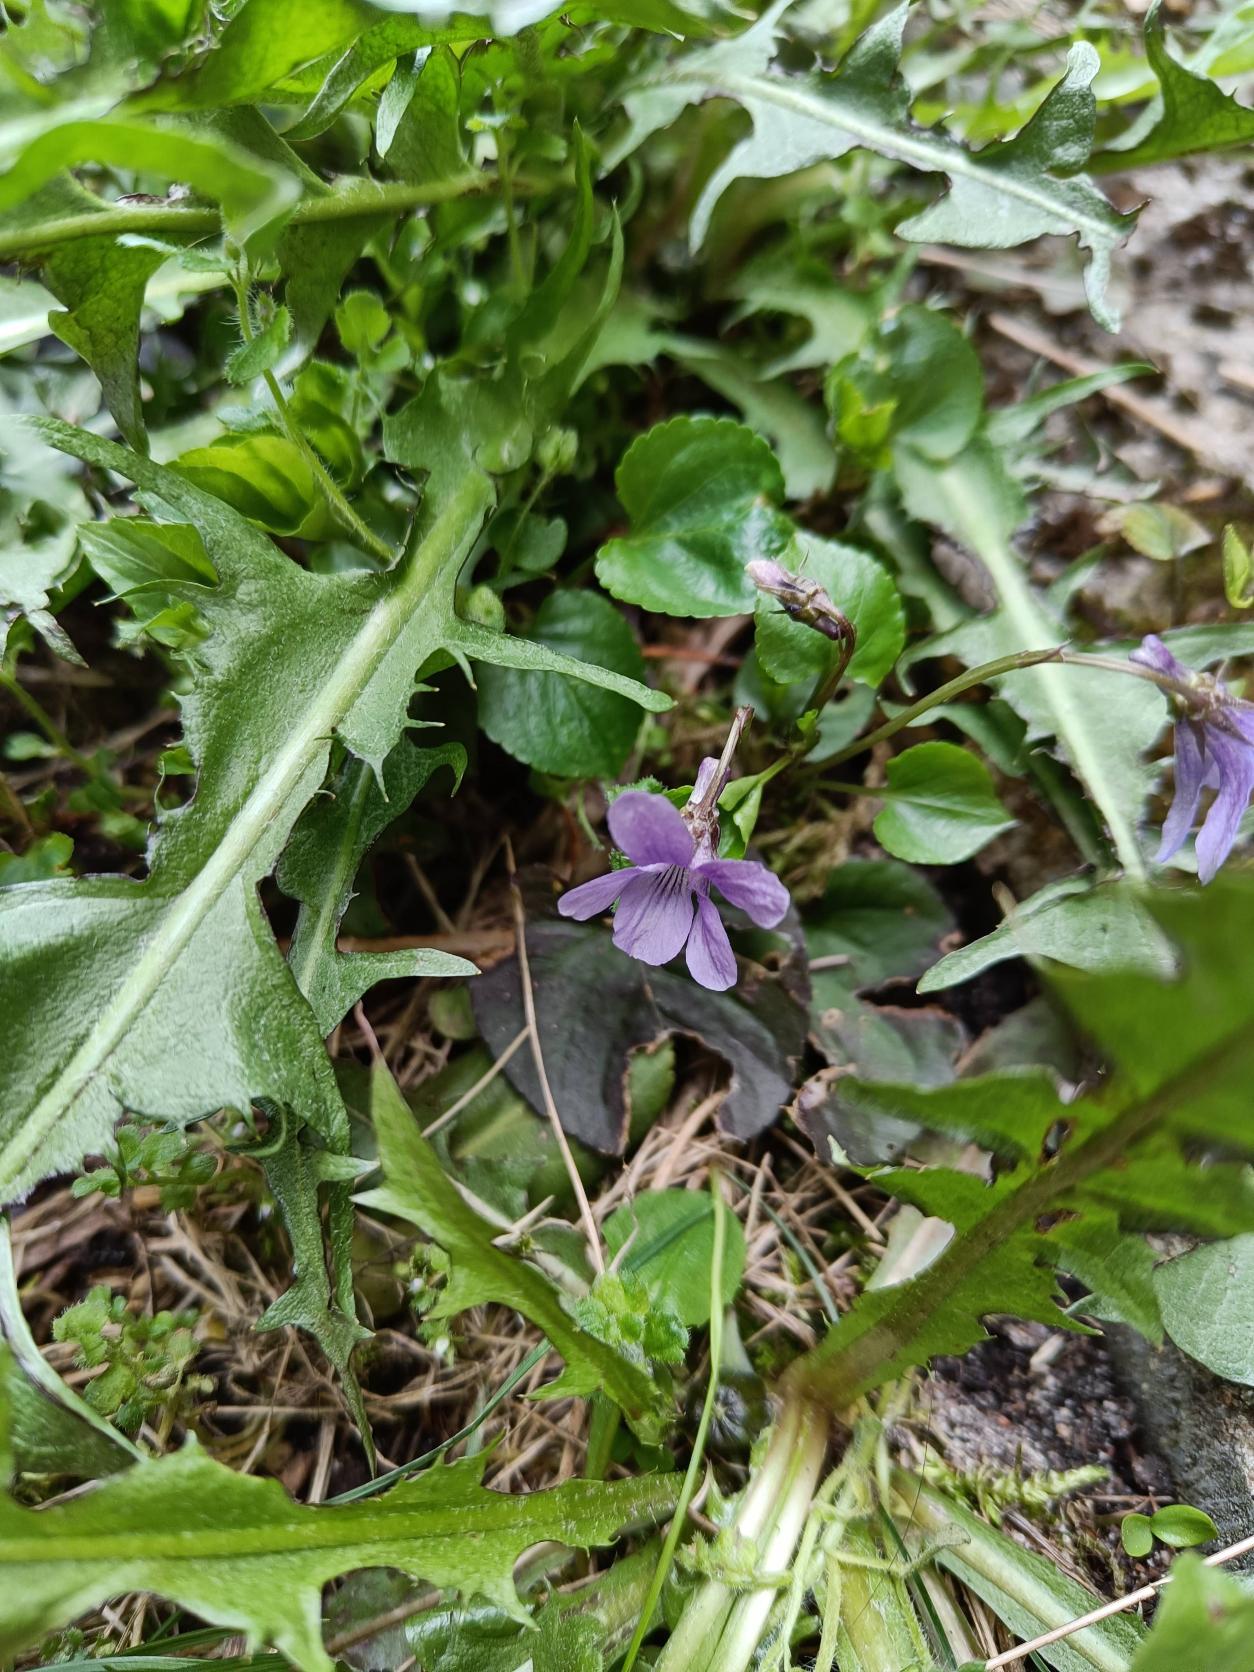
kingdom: Plantae
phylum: Tracheophyta
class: Magnoliopsida
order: Malpighiales
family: Violaceae
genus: Viola
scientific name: Viola reichenbachiana
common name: Skov-viol
